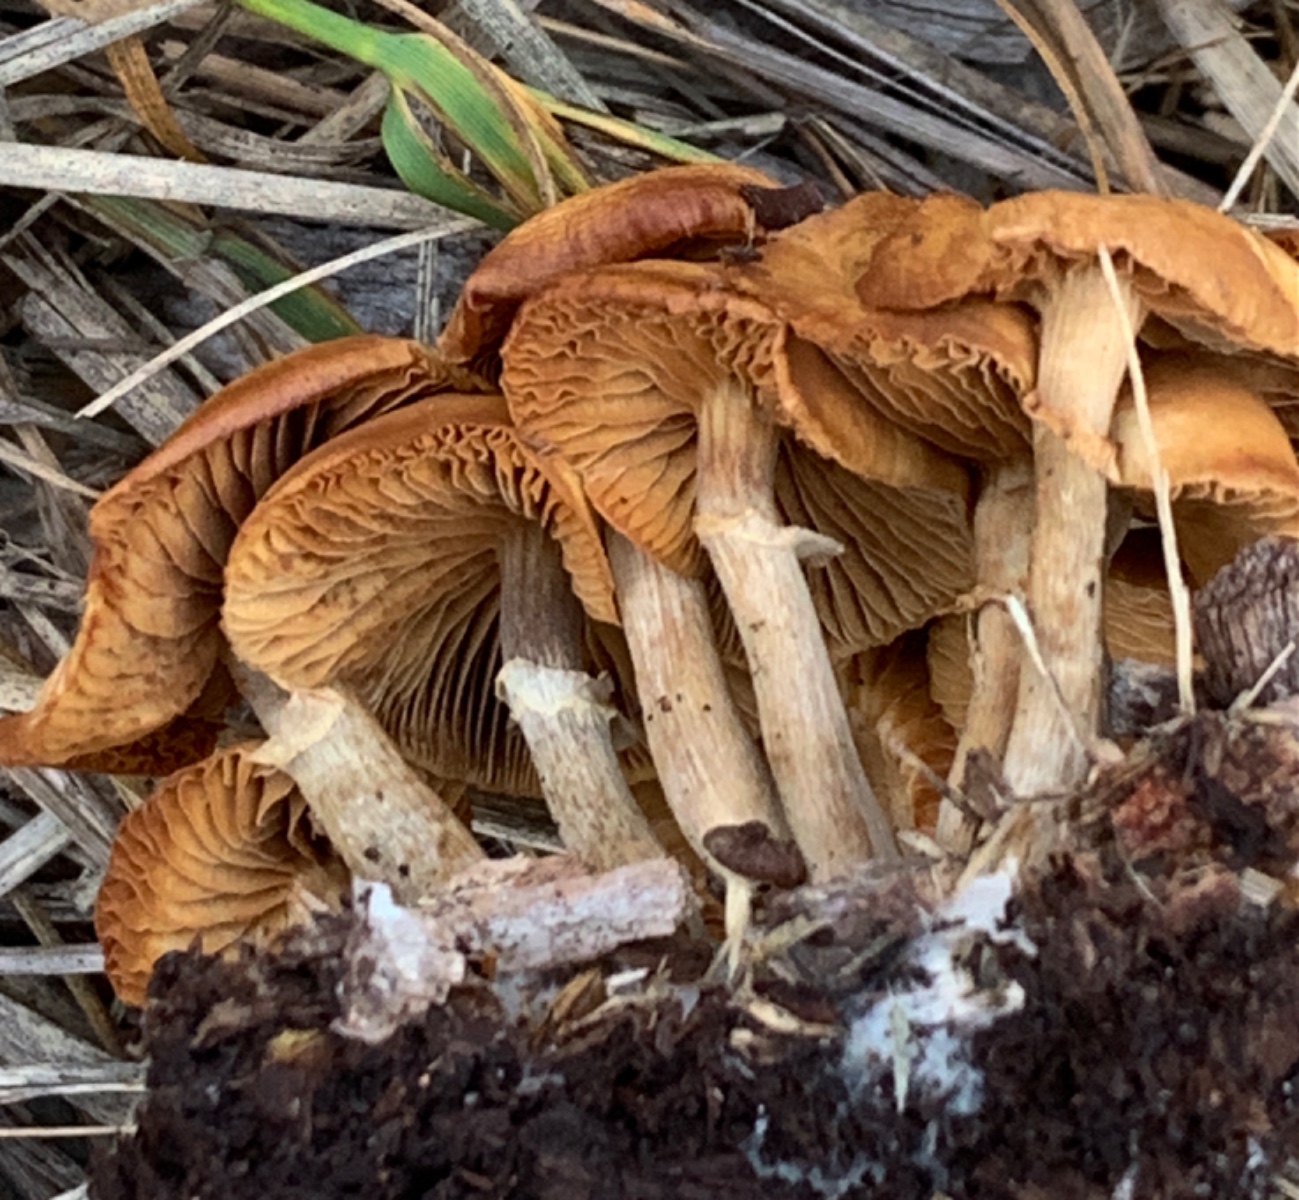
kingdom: Fungi
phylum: Basidiomycota
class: Agaricomycetes
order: Agaricales
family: Hymenogastraceae
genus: Galerina
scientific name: Galerina marginata
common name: randbæltet hjelmhat
